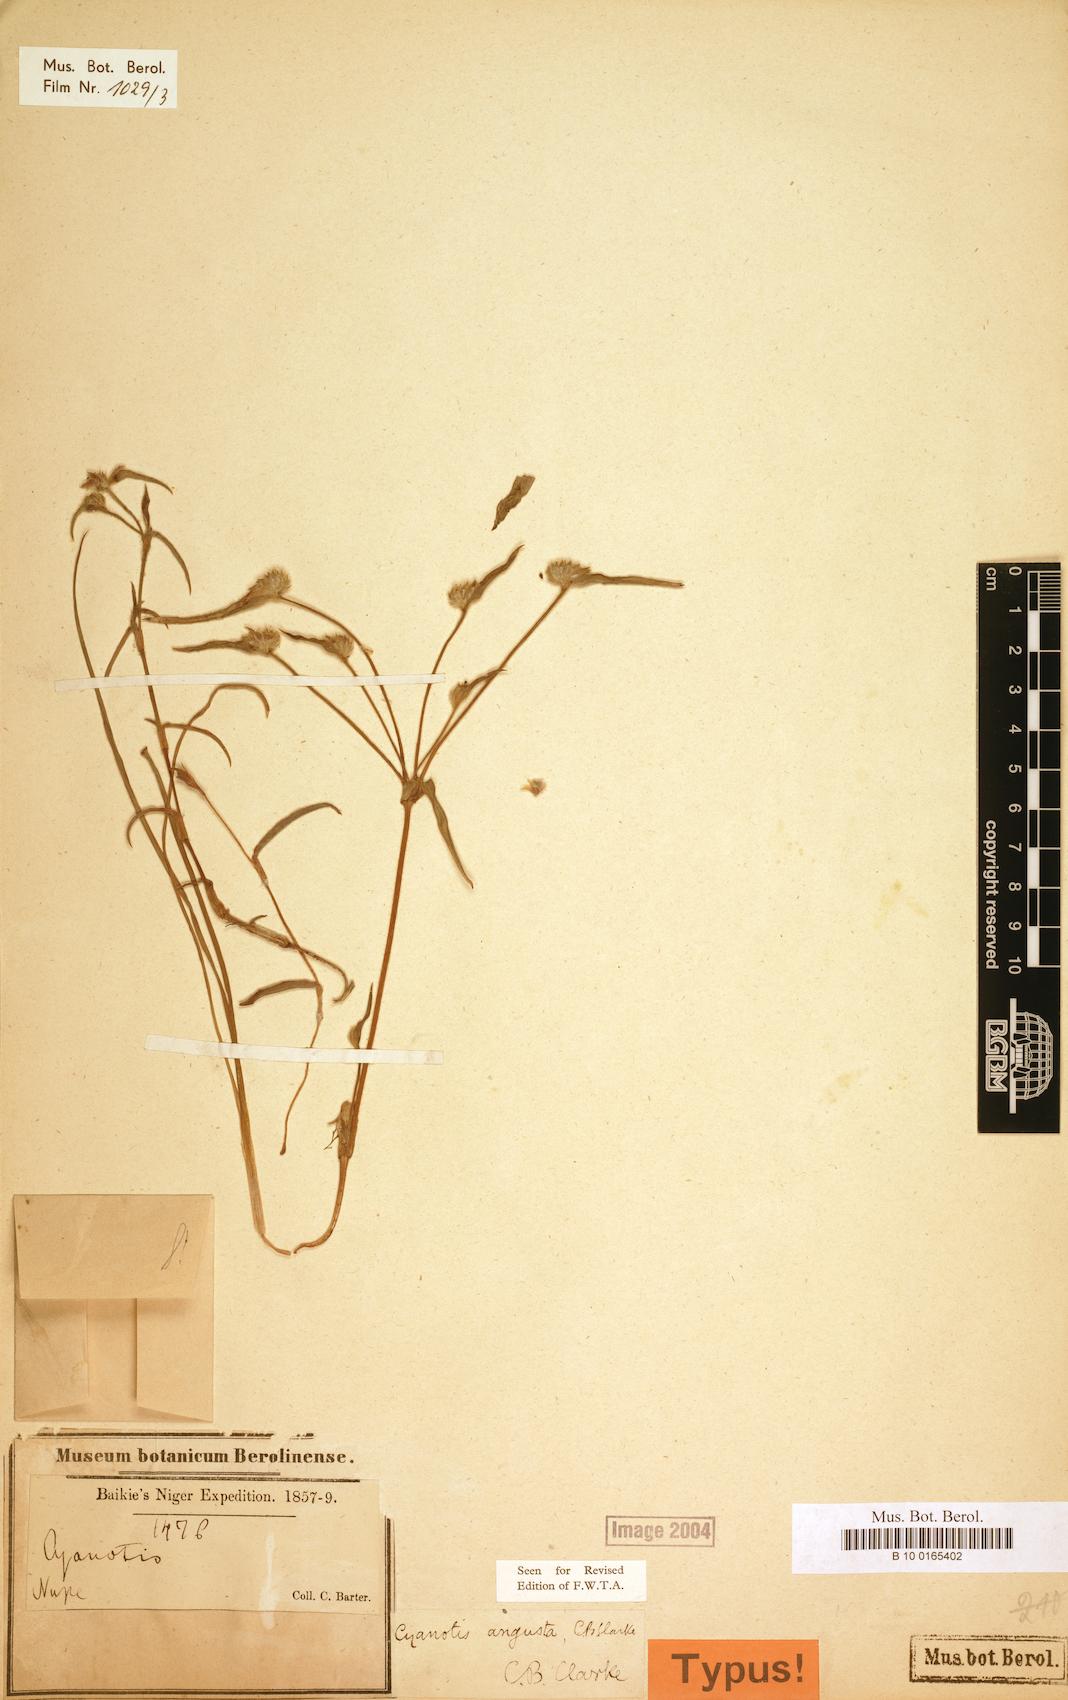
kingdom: Plantae
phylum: Tracheophyta
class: Liliopsida
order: Commelinales
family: Commelinaceae
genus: Cyanotis
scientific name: Cyanotis angusta
